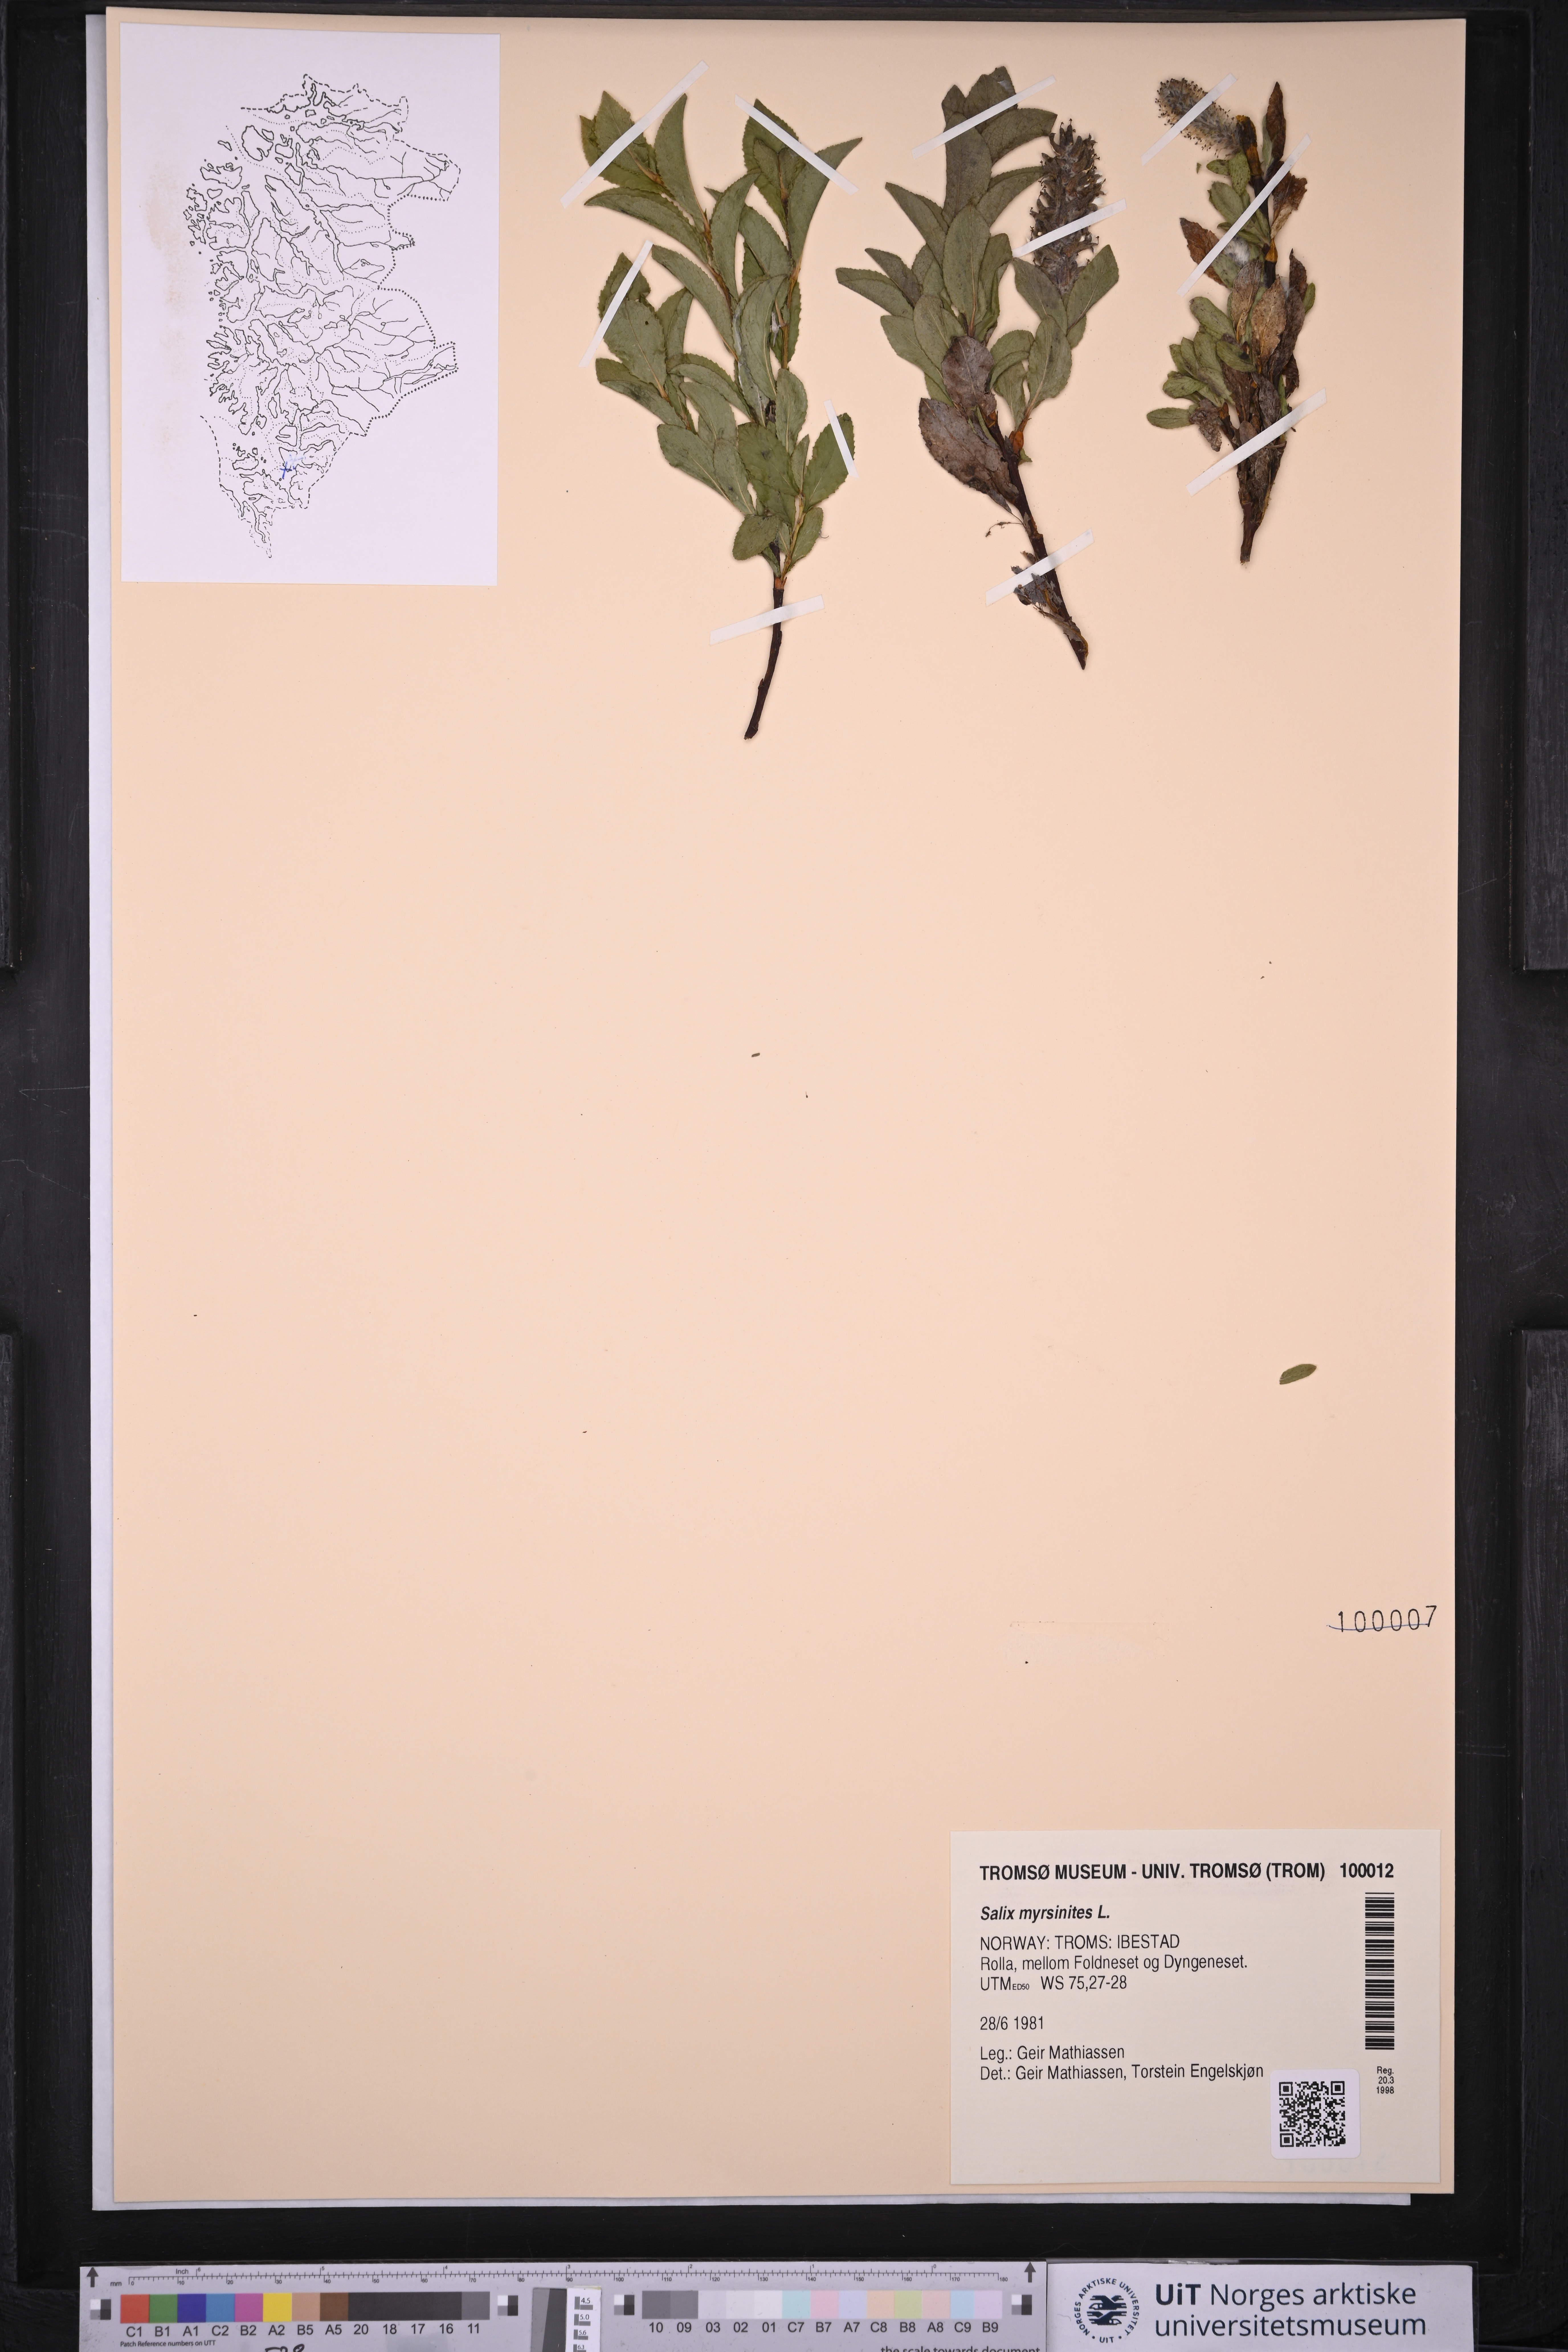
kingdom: Plantae
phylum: Tracheophyta
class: Magnoliopsida
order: Malpighiales
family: Salicaceae
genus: Salix
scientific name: Salix myrsinites
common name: Myrtle willow
